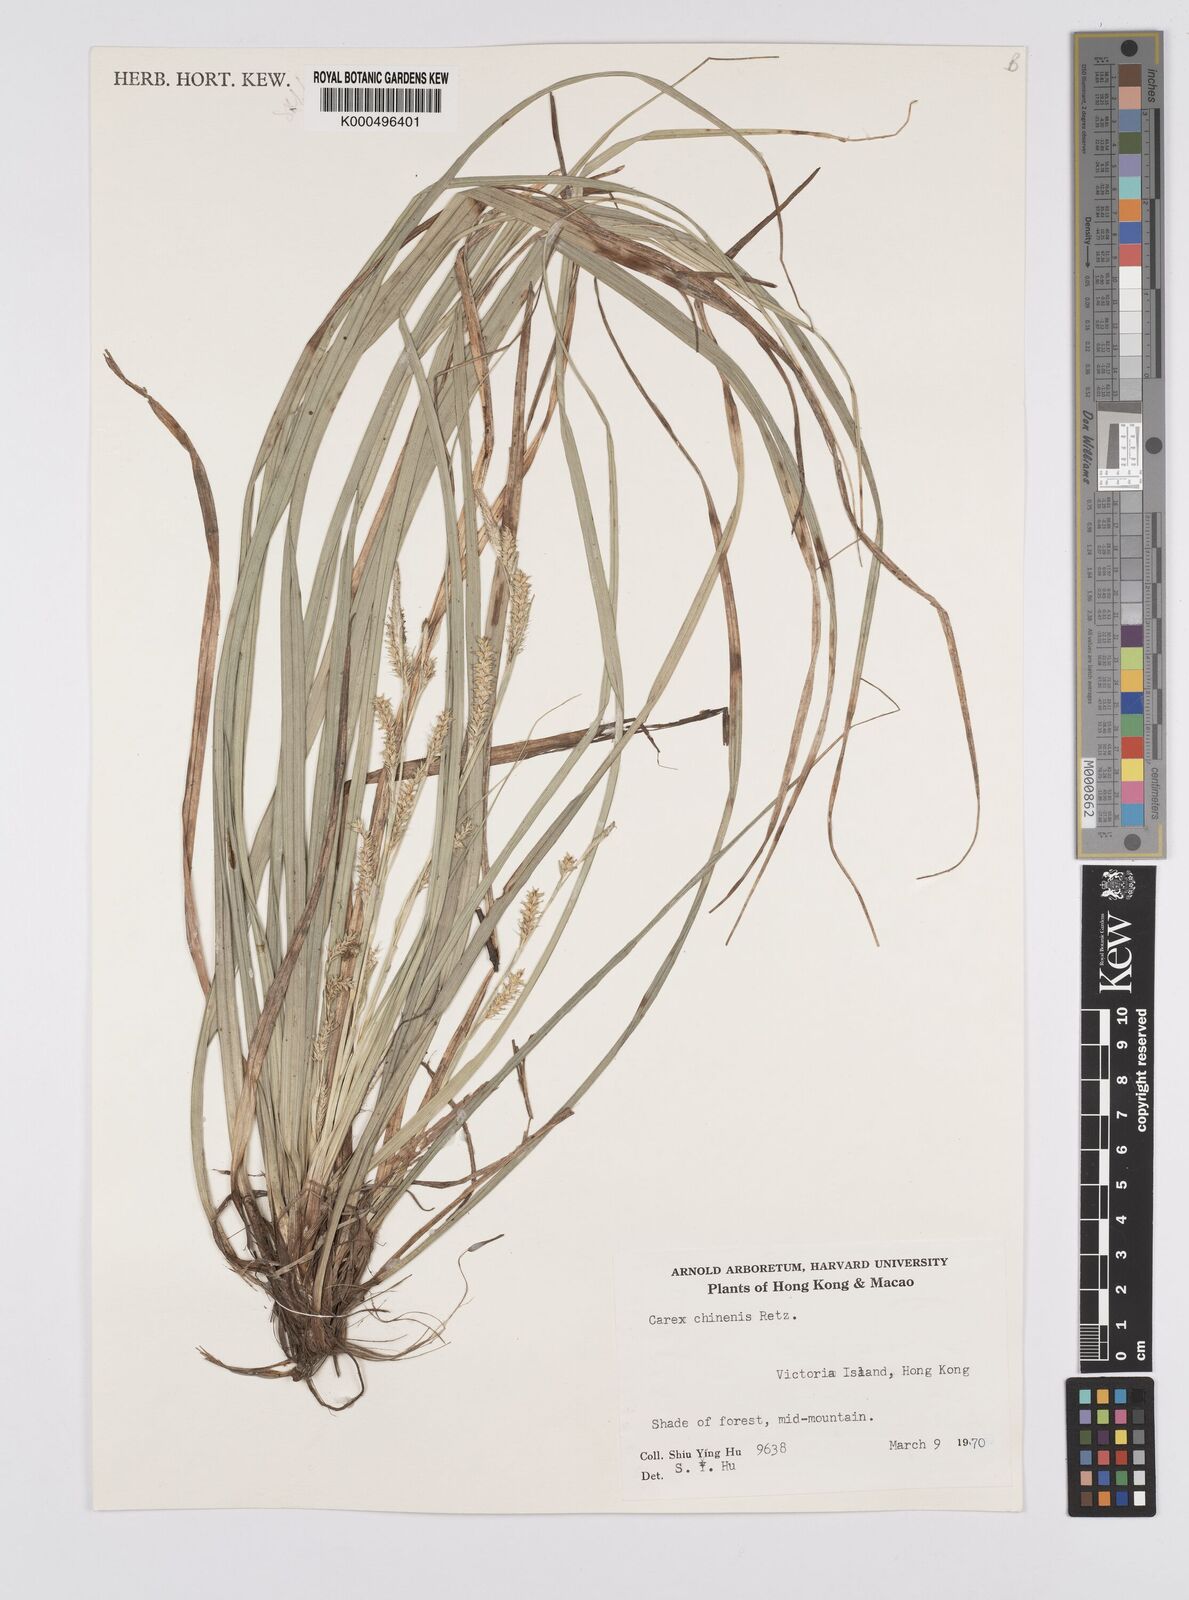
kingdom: Plantae
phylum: Tracheophyta
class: Liliopsida
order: Poales
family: Cyperaceae
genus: Carex
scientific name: Carex chinensis
